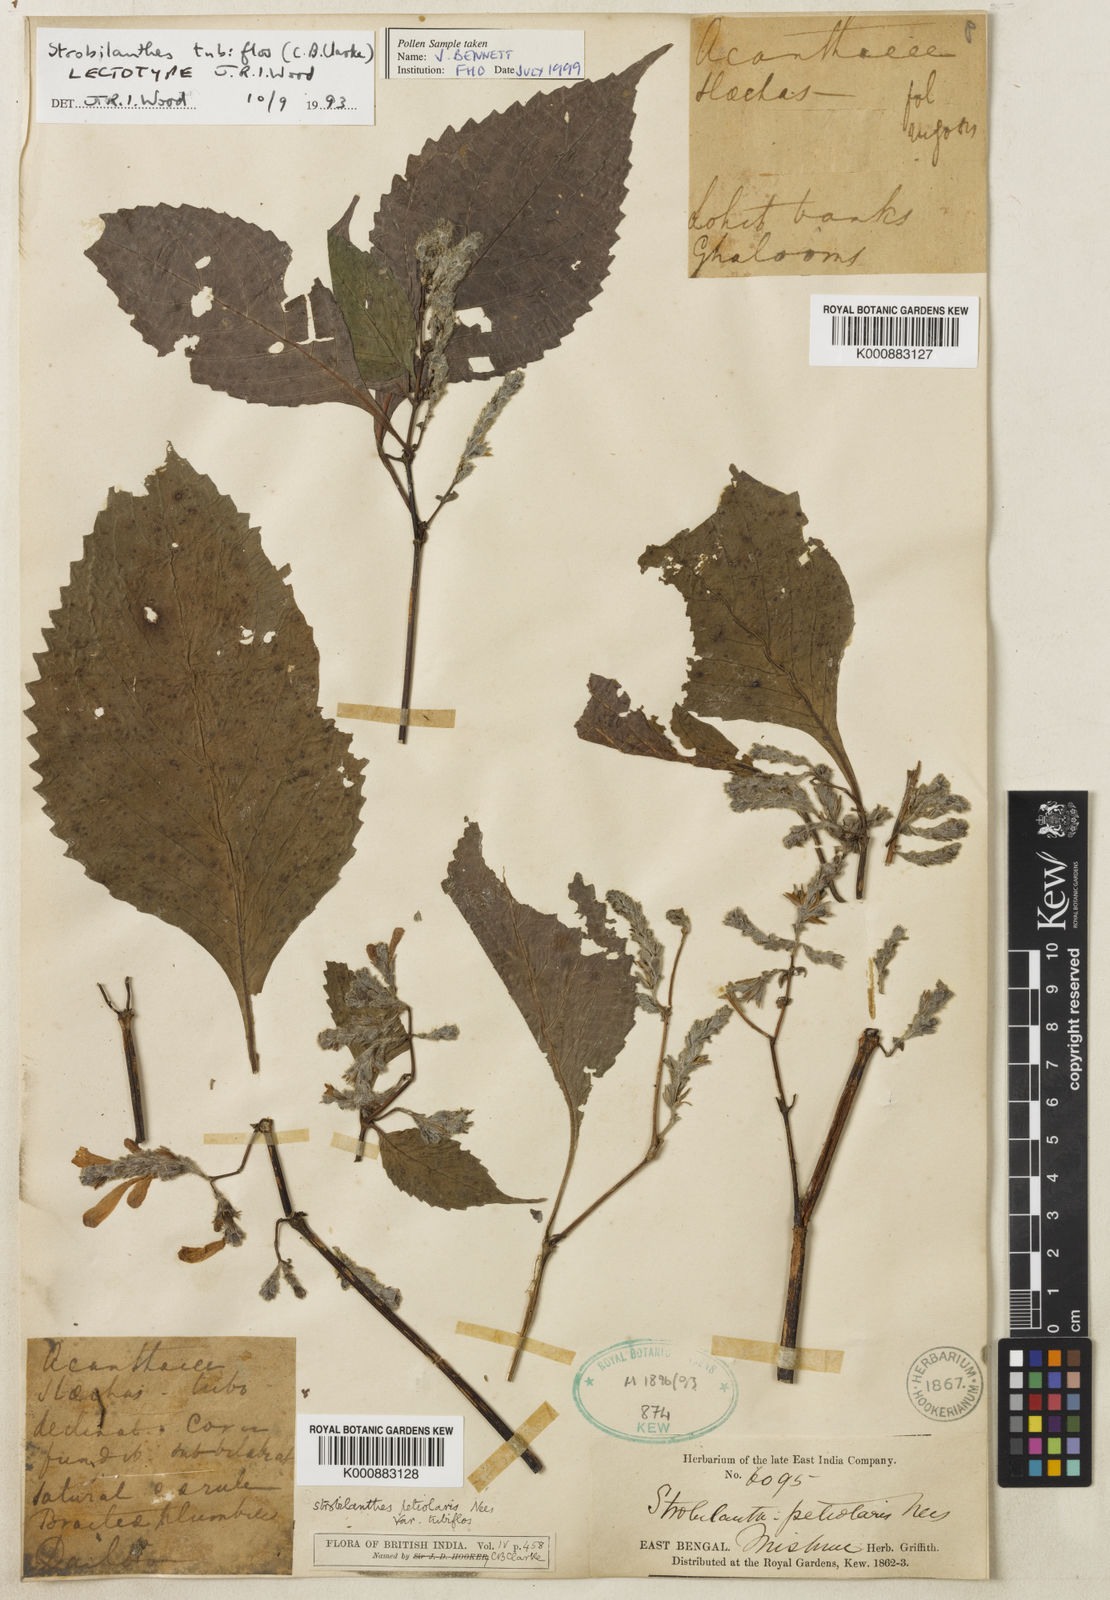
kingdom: Plantae
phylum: Tracheophyta
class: Magnoliopsida
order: Lamiales
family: Acanthaceae
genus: Strobilanthes
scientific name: Strobilanthes tubiflos
